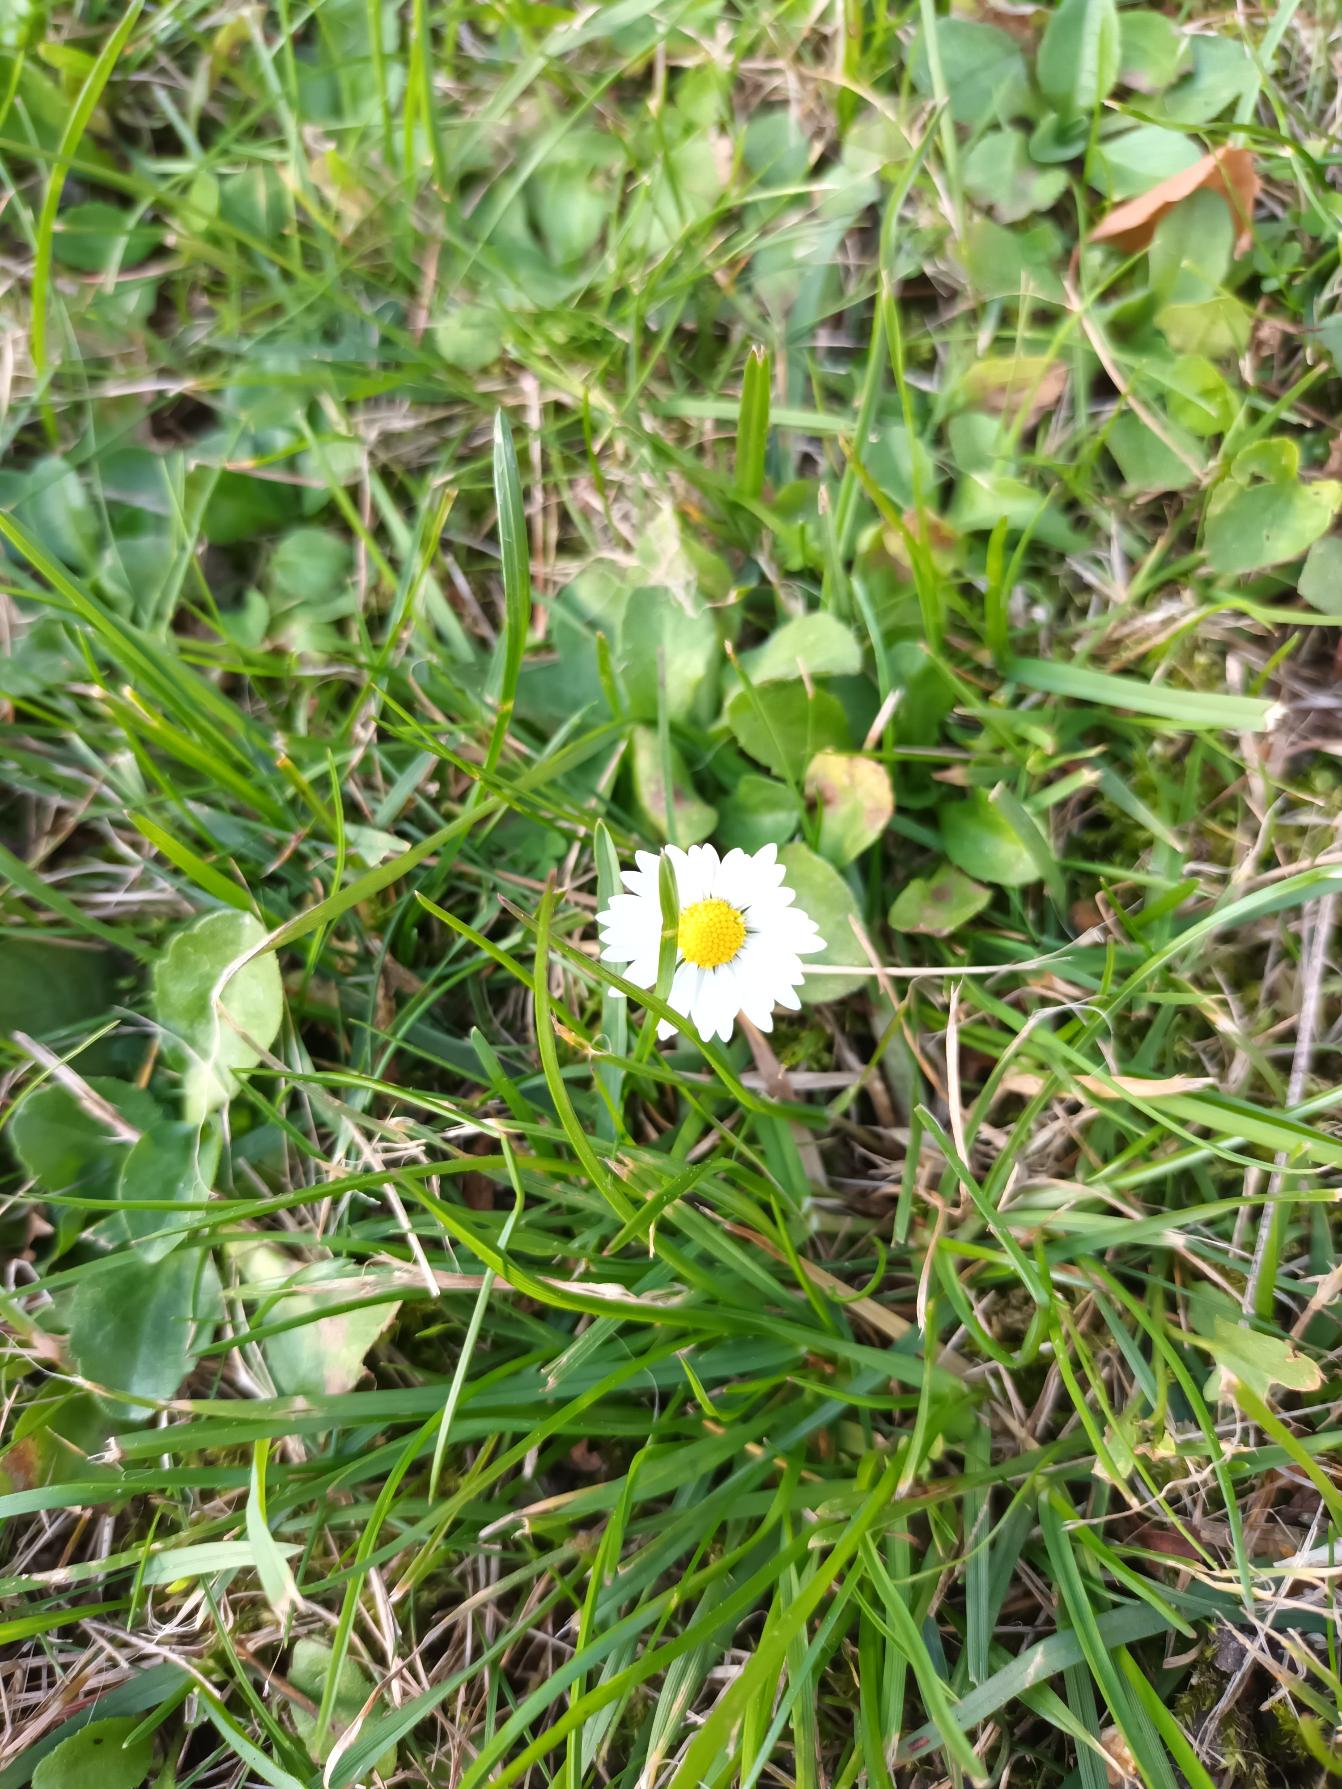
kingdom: Plantae
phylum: Tracheophyta
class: Magnoliopsida
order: Asterales
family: Asteraceae
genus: Bellis
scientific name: Bellis perennis
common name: Tusindfryd
